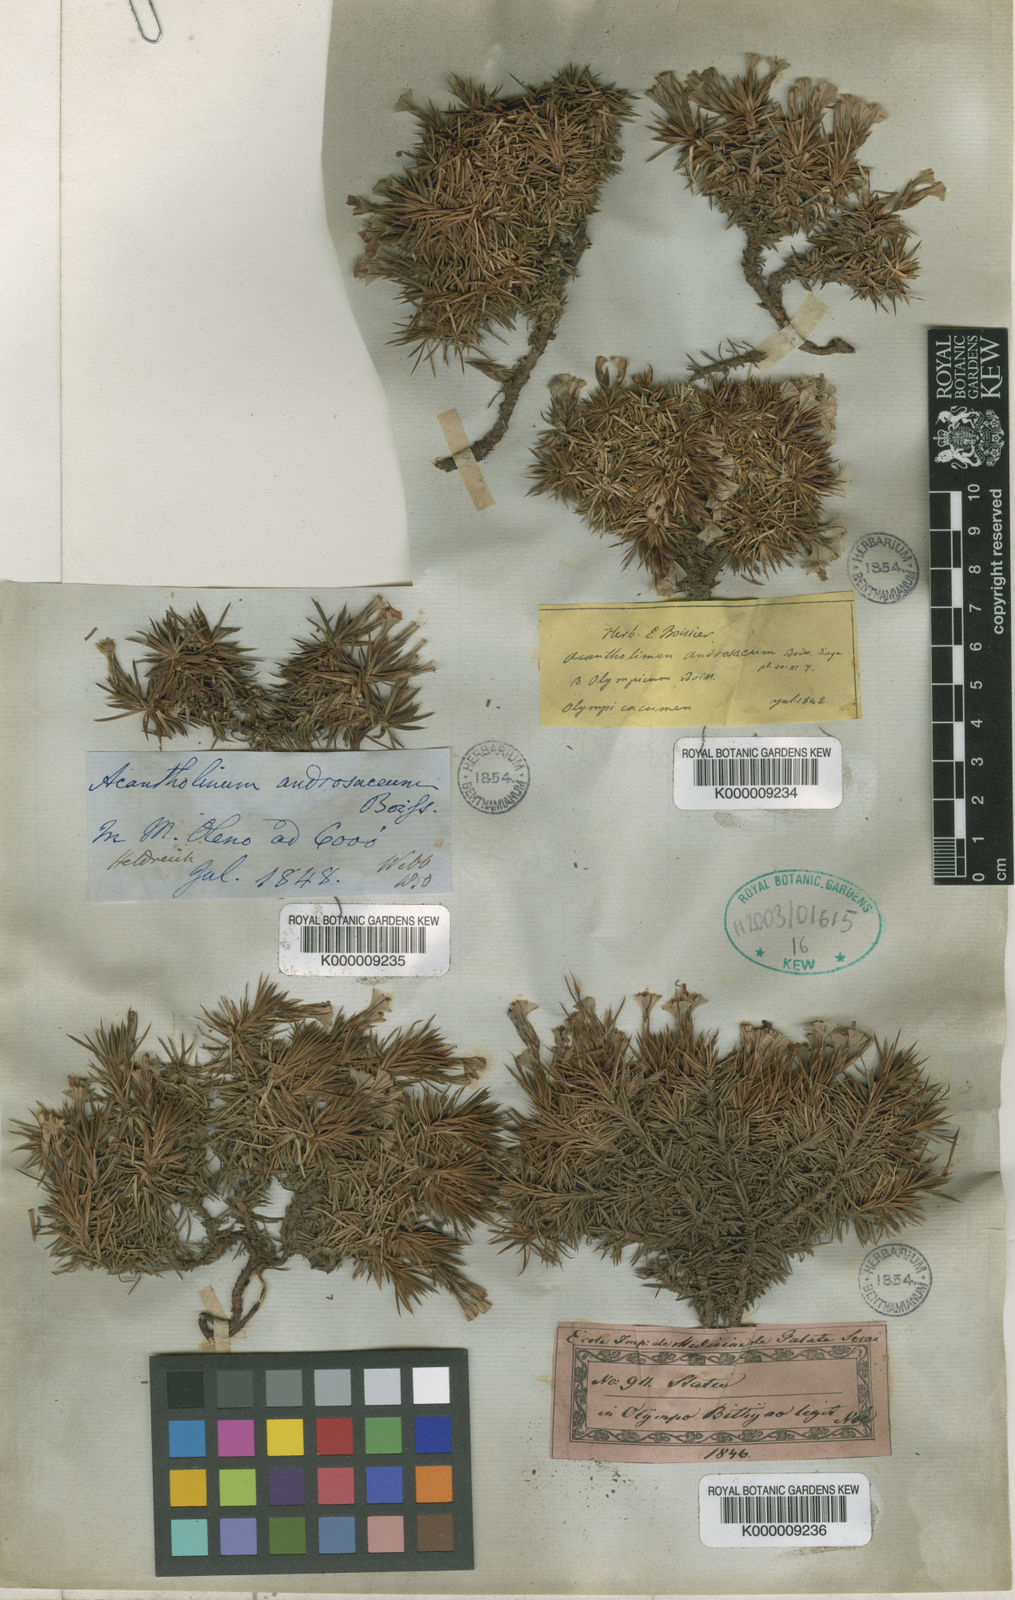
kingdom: Plantae
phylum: Tracheophyta
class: Magnoliopsida
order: Caryophyllales
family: Plumbaginaceae
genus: Acantholimon
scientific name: Acantholimon ulicinum
